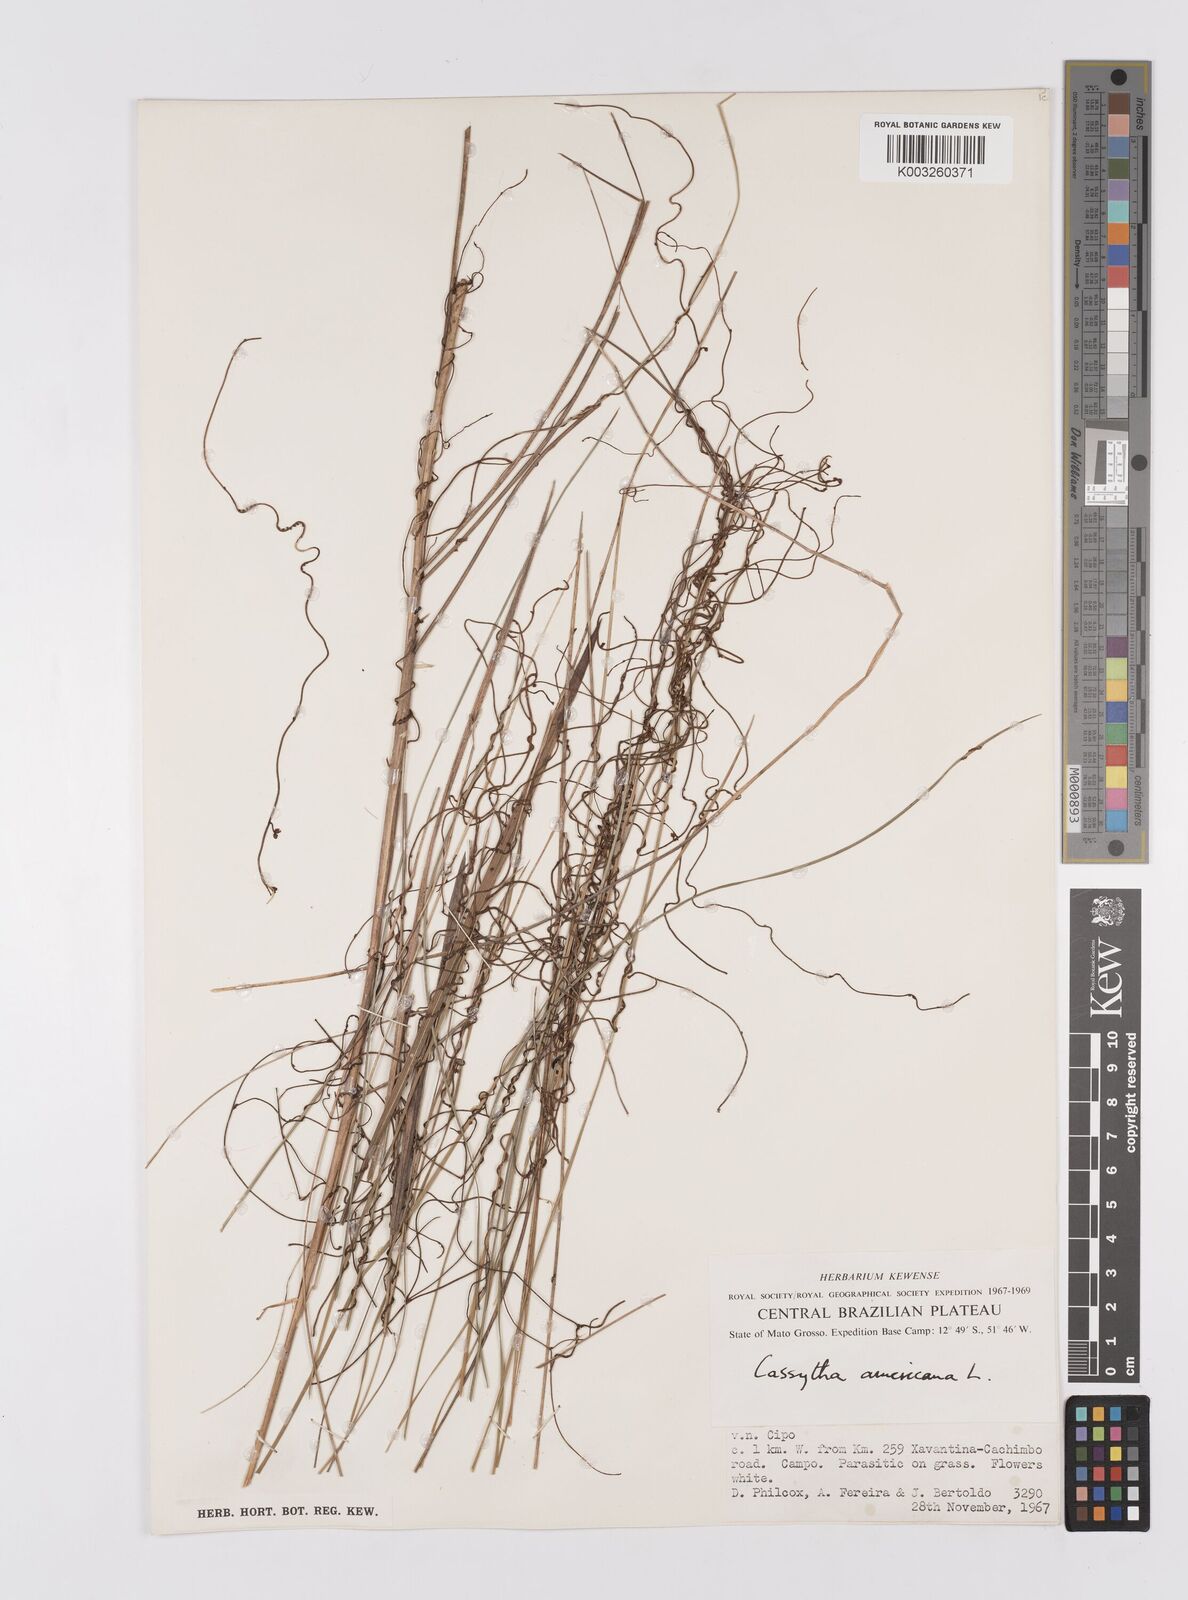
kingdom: Plantae
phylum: Tracheophyta
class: Magnoliopsida
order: Laurales
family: Lauraceae
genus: Cassytha
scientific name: Cassytha filiformis
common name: Dodder-laurel
